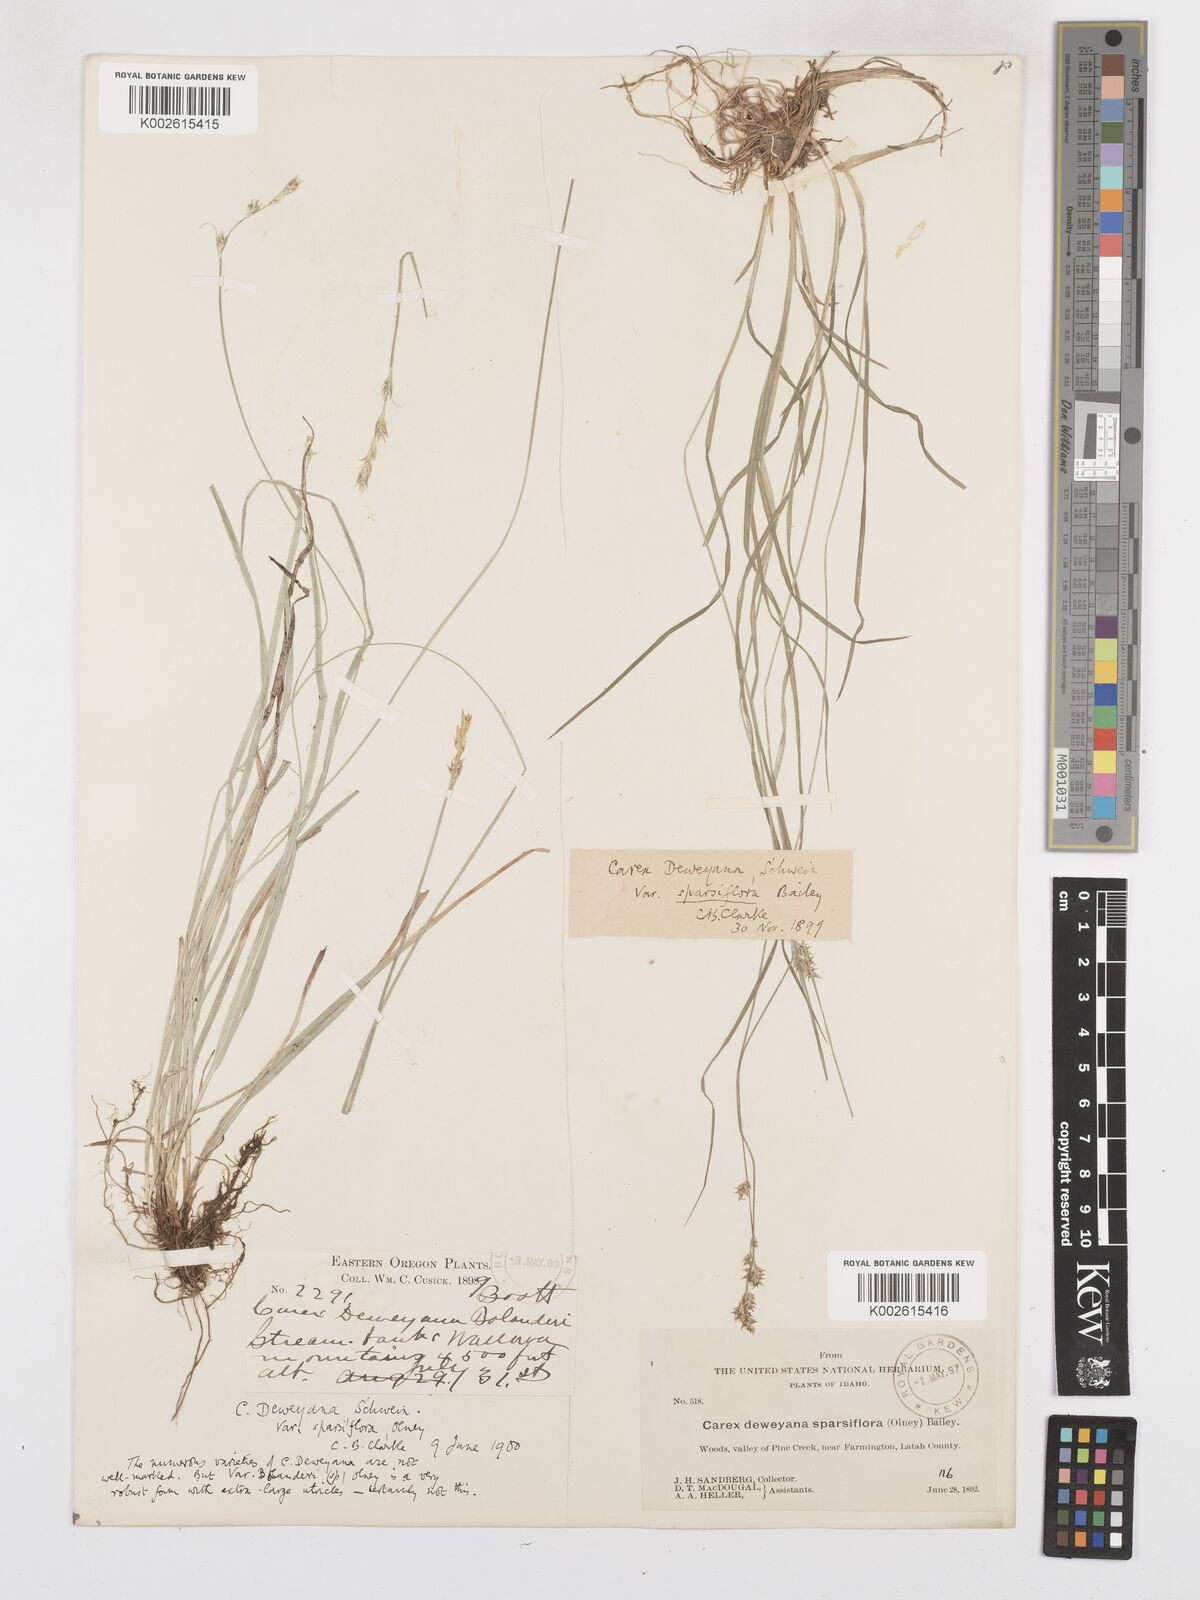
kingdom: Plantae
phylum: Tracheophyta
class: Liliopsida
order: Poales
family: Cyperaceae
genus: Carex
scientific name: Carex bolanderi
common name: Bolander's sedge
